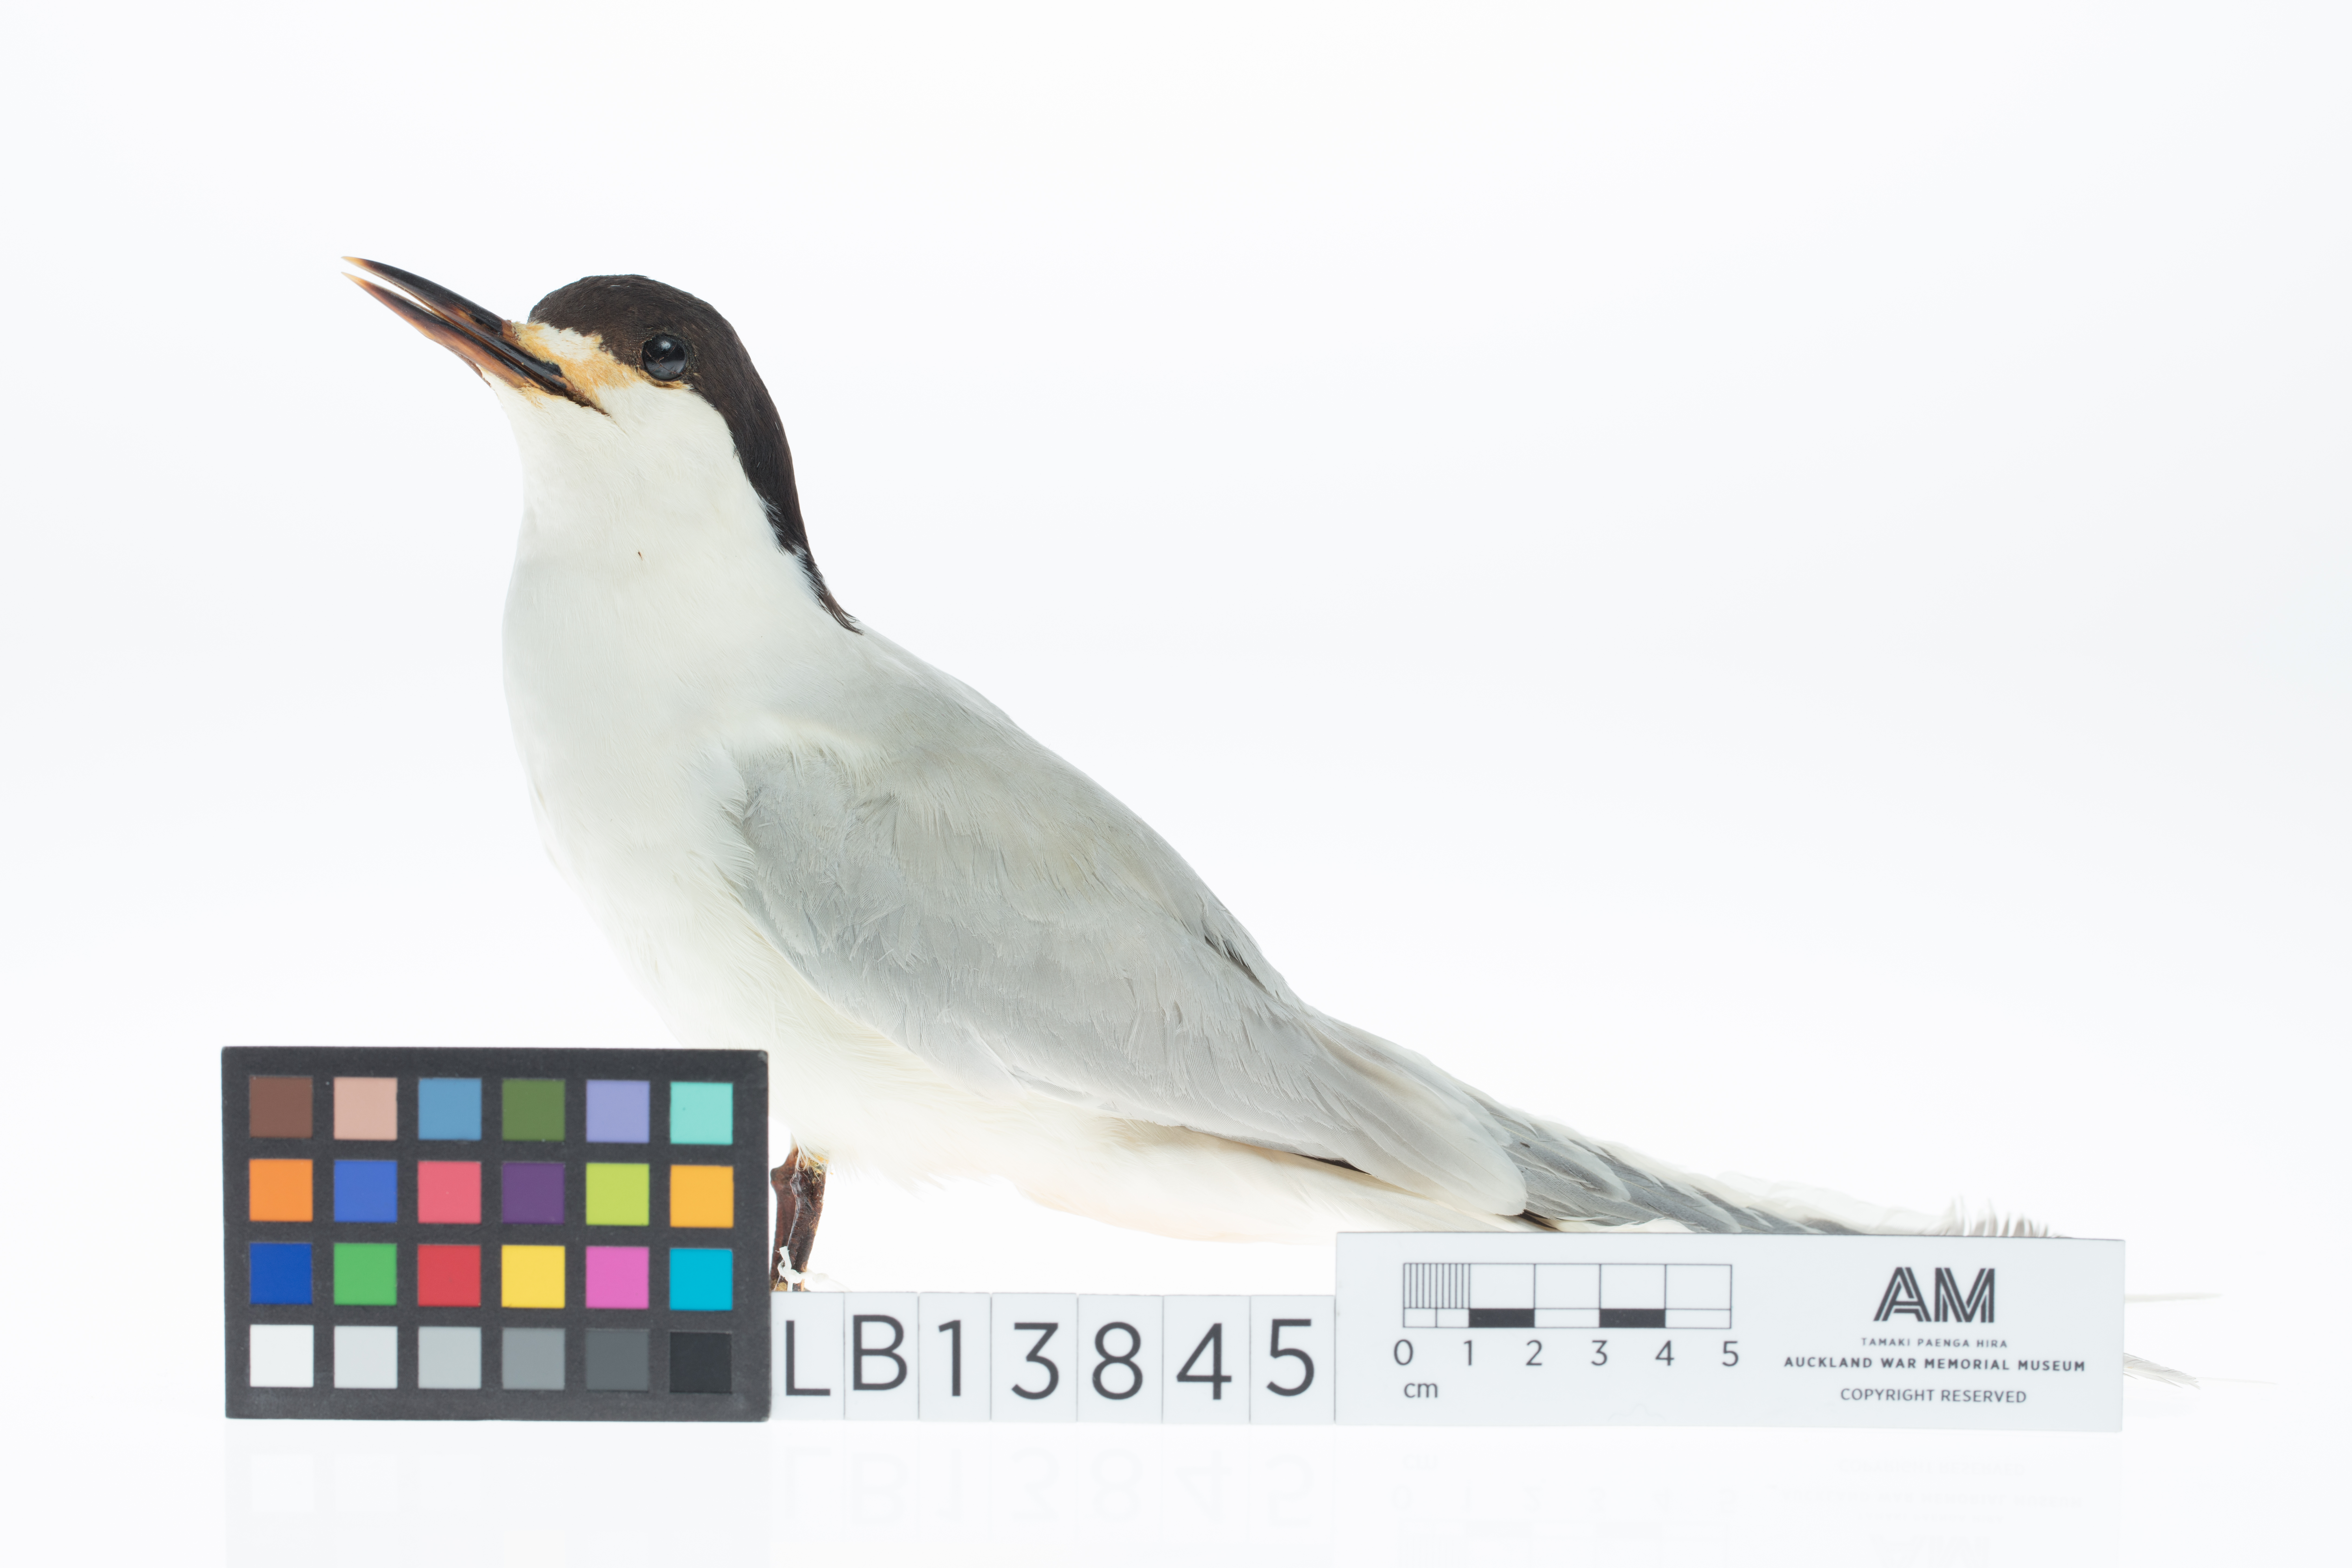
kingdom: Animalia
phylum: Chordata
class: Aves
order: Charadriiformes
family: Laridae
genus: Sterna
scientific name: Sterna striata
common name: White-fronted tern
